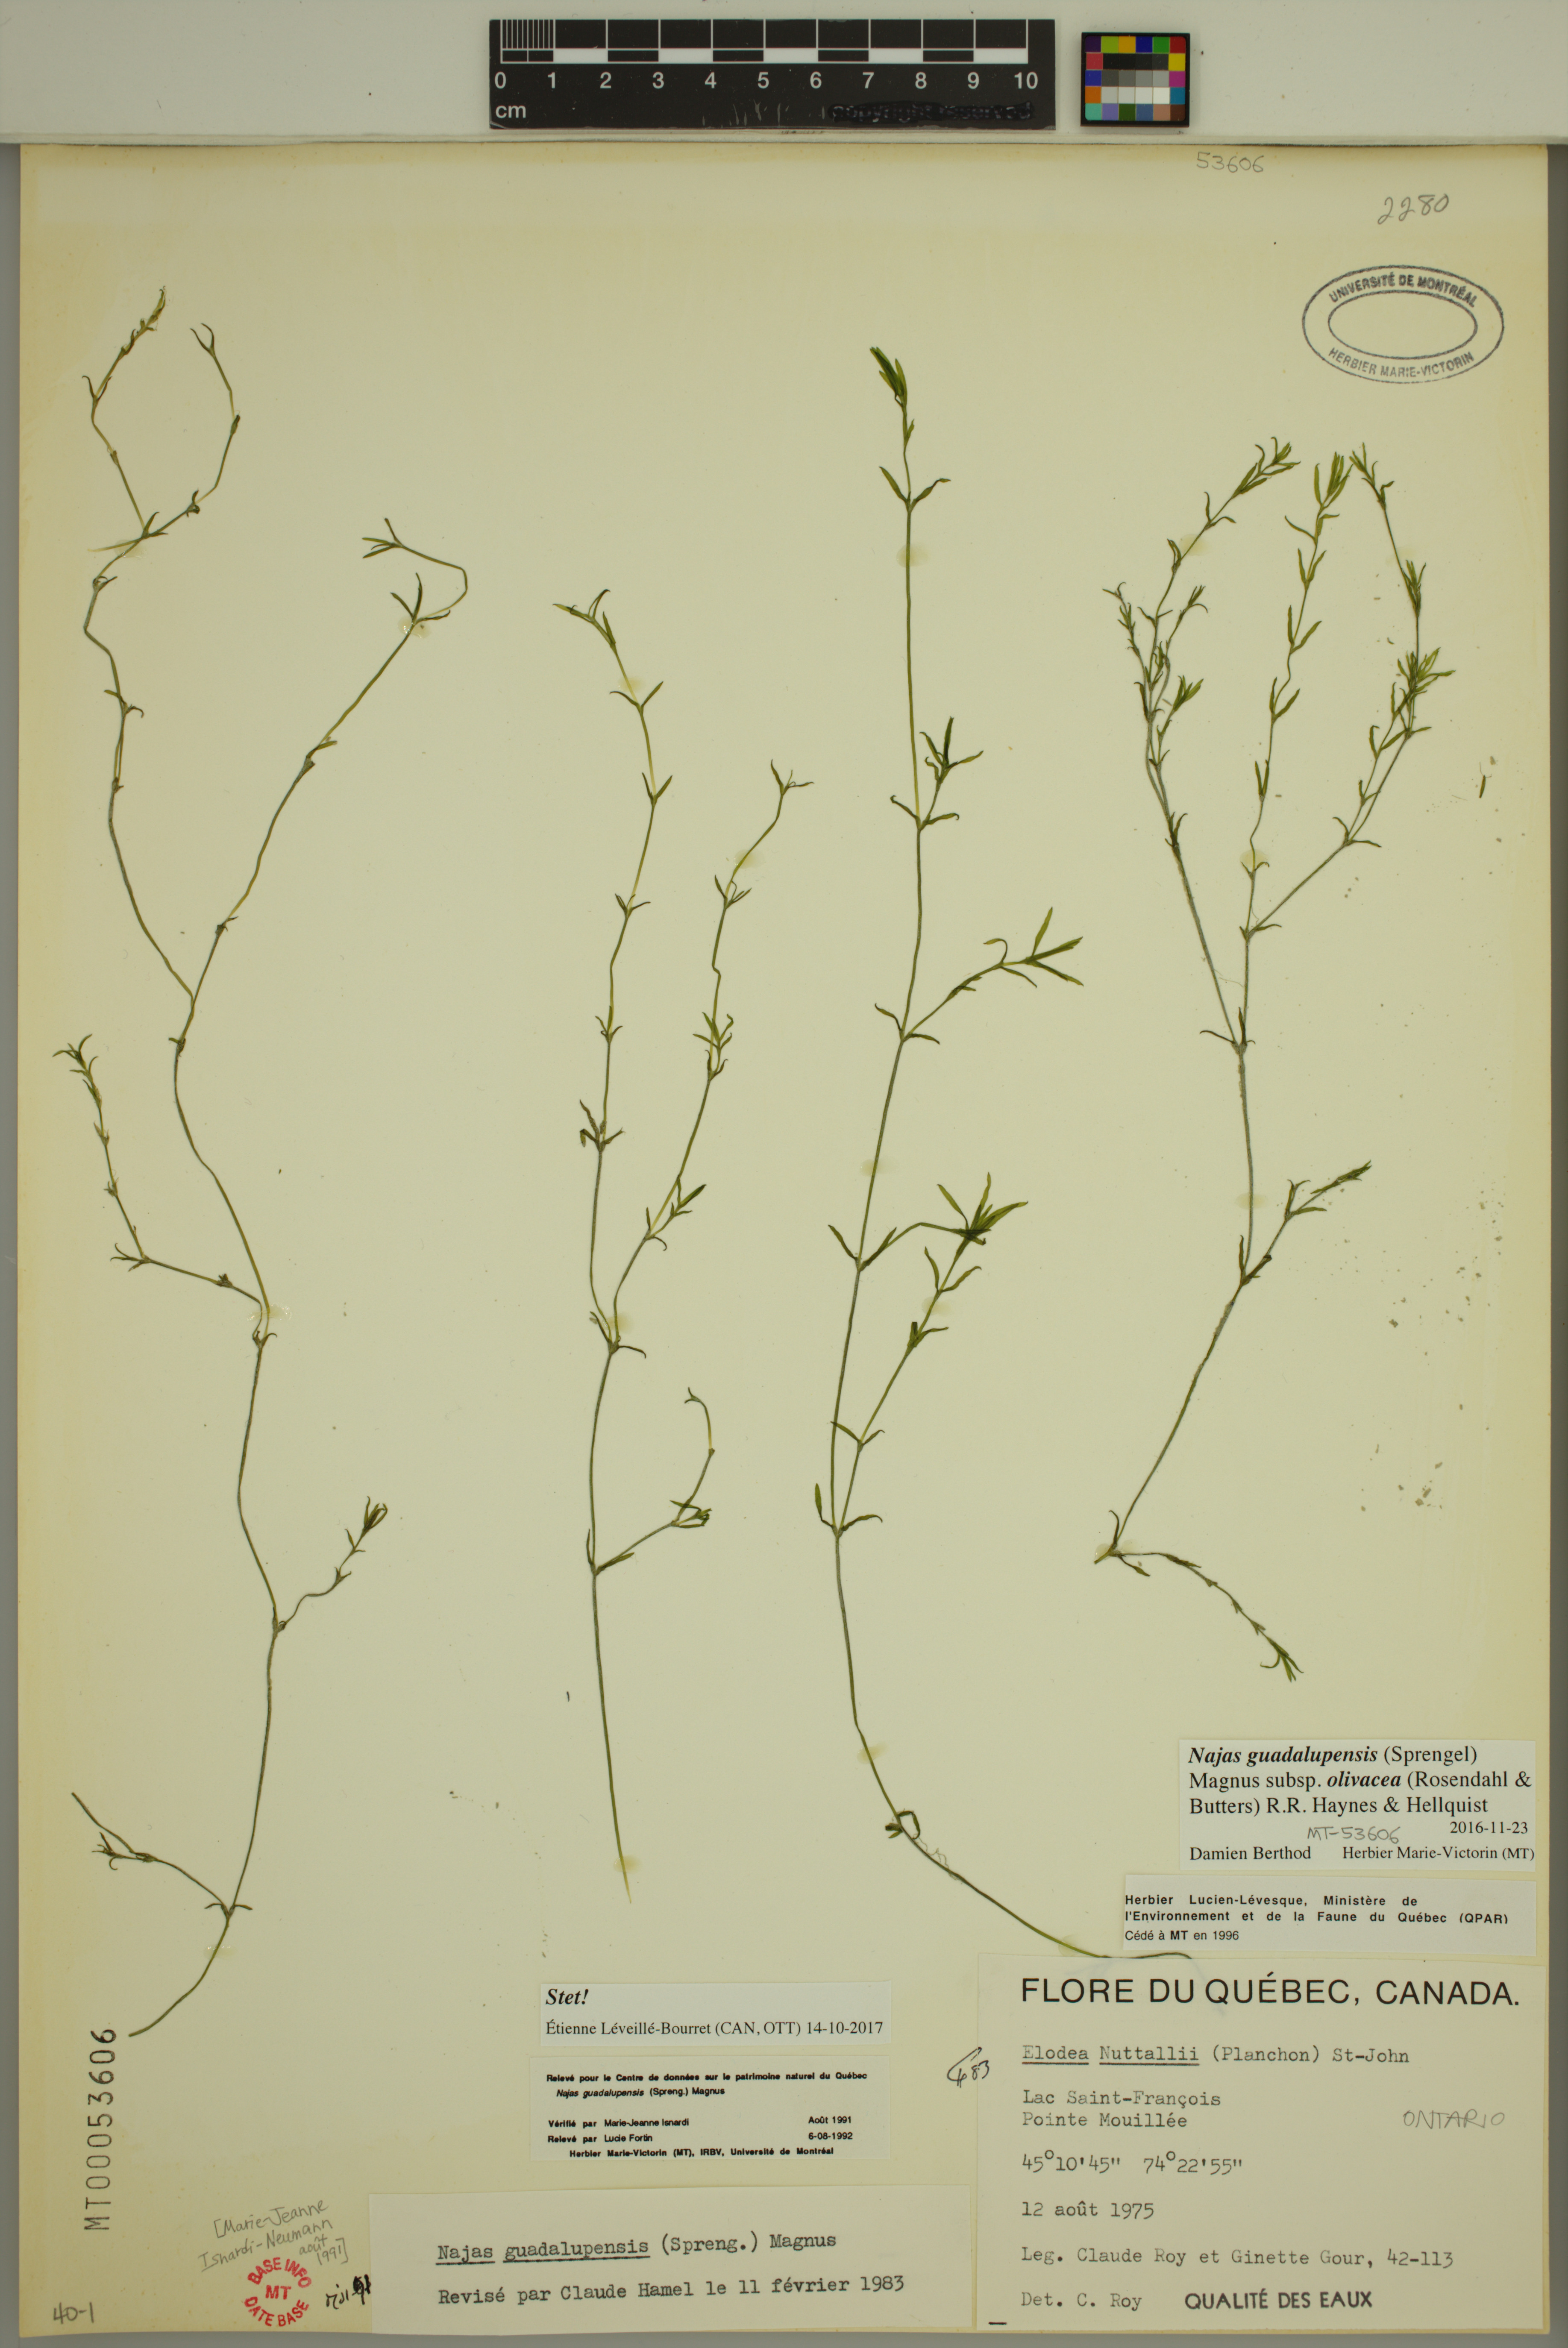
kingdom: Plantae
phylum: Tracheophyta
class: Liliopsida
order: Alismatales
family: Hydrocharitaceae
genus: Najas
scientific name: Najas guadalupensis
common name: Southern naiad
